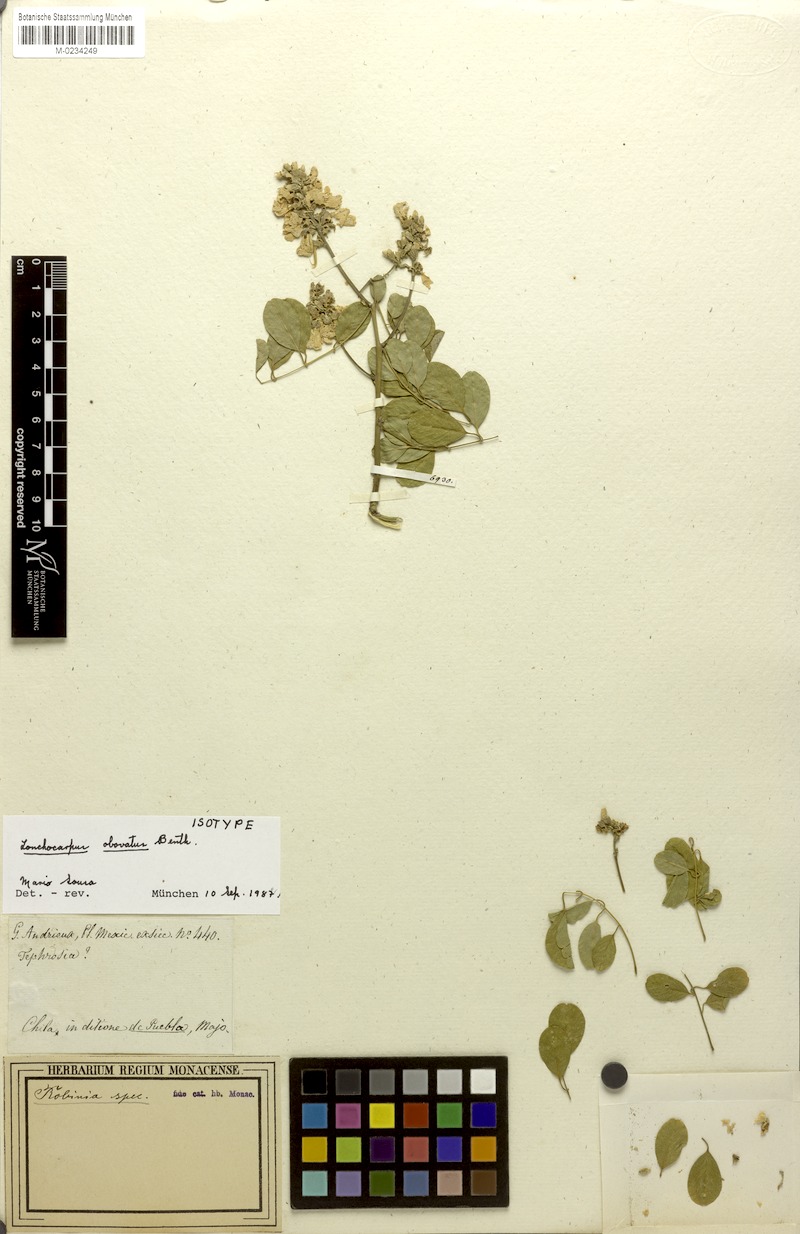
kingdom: Plantae
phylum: Tracheophyta
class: Magnoliopsida
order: Fabales
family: Fabaceae
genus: Lonchocarpus
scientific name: Lonchocarpus obovatus
